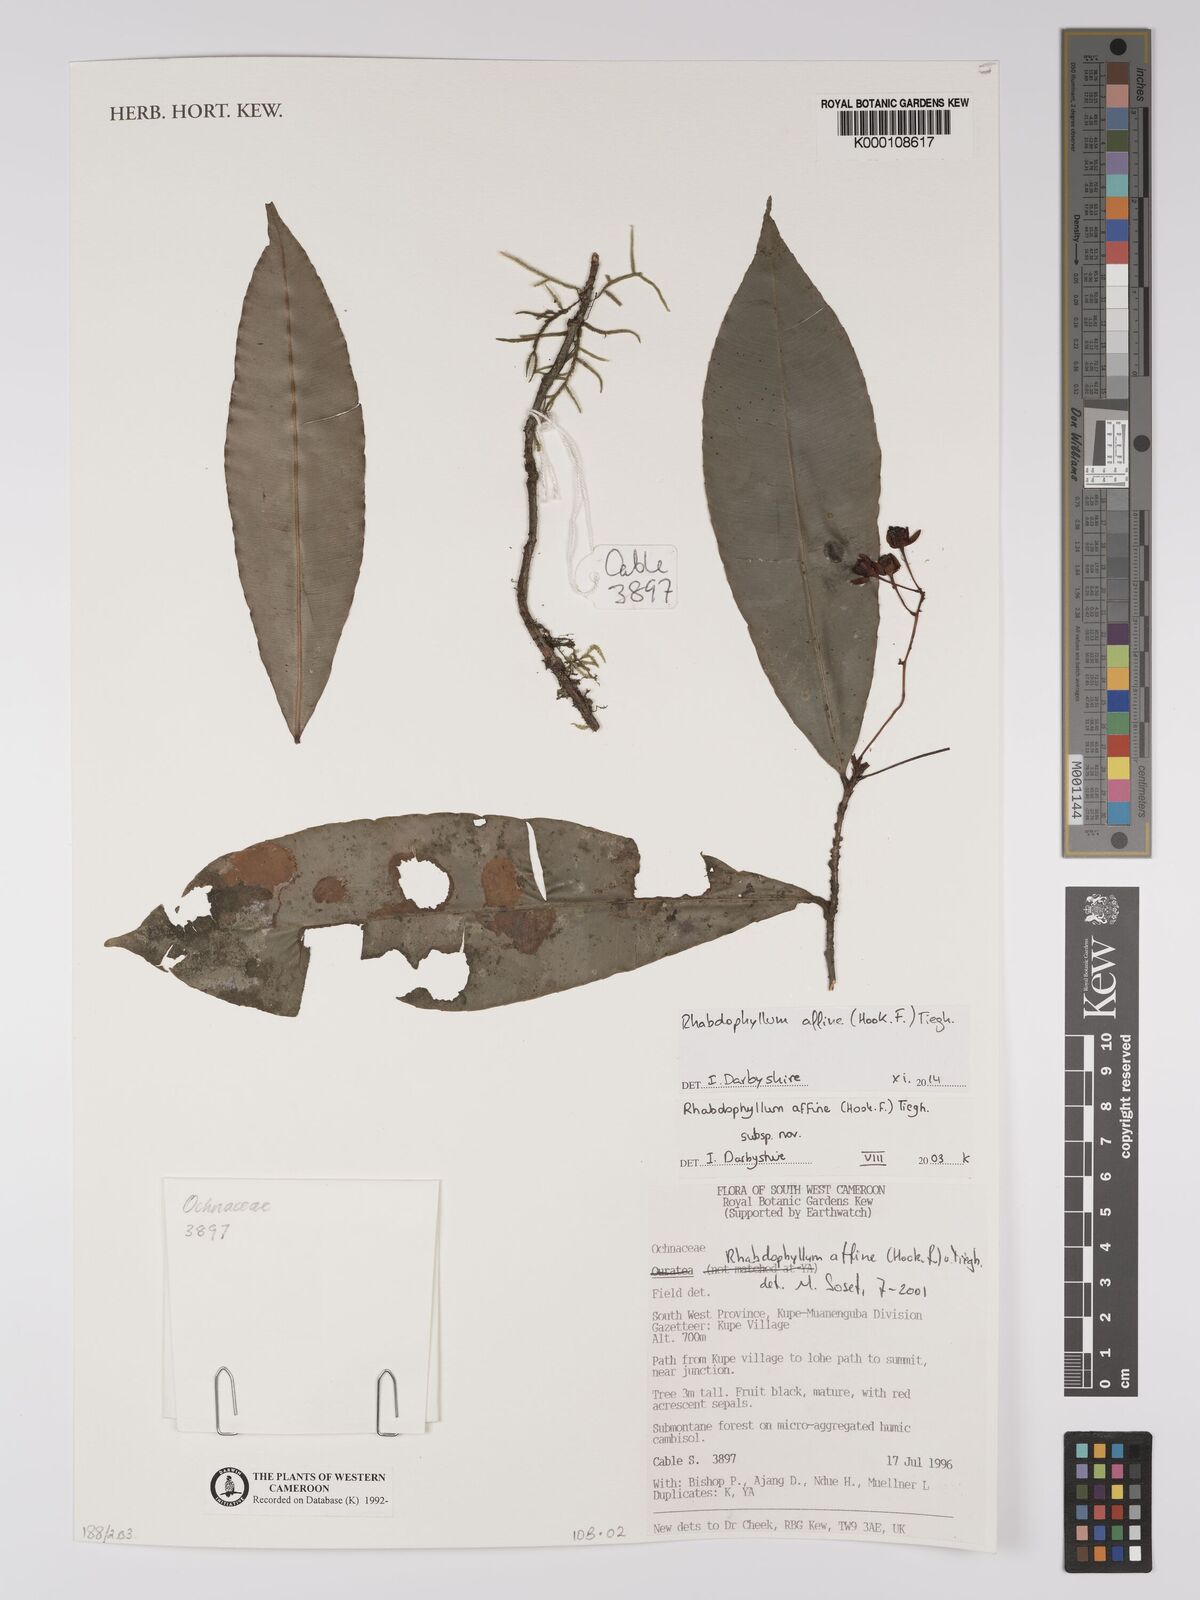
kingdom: Plantae
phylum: Tracheophyta
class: Magnoliopsida
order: Malpighiales
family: Ochnaceae
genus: Rhabdophyllum
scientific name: Rhabdophyllum affine
